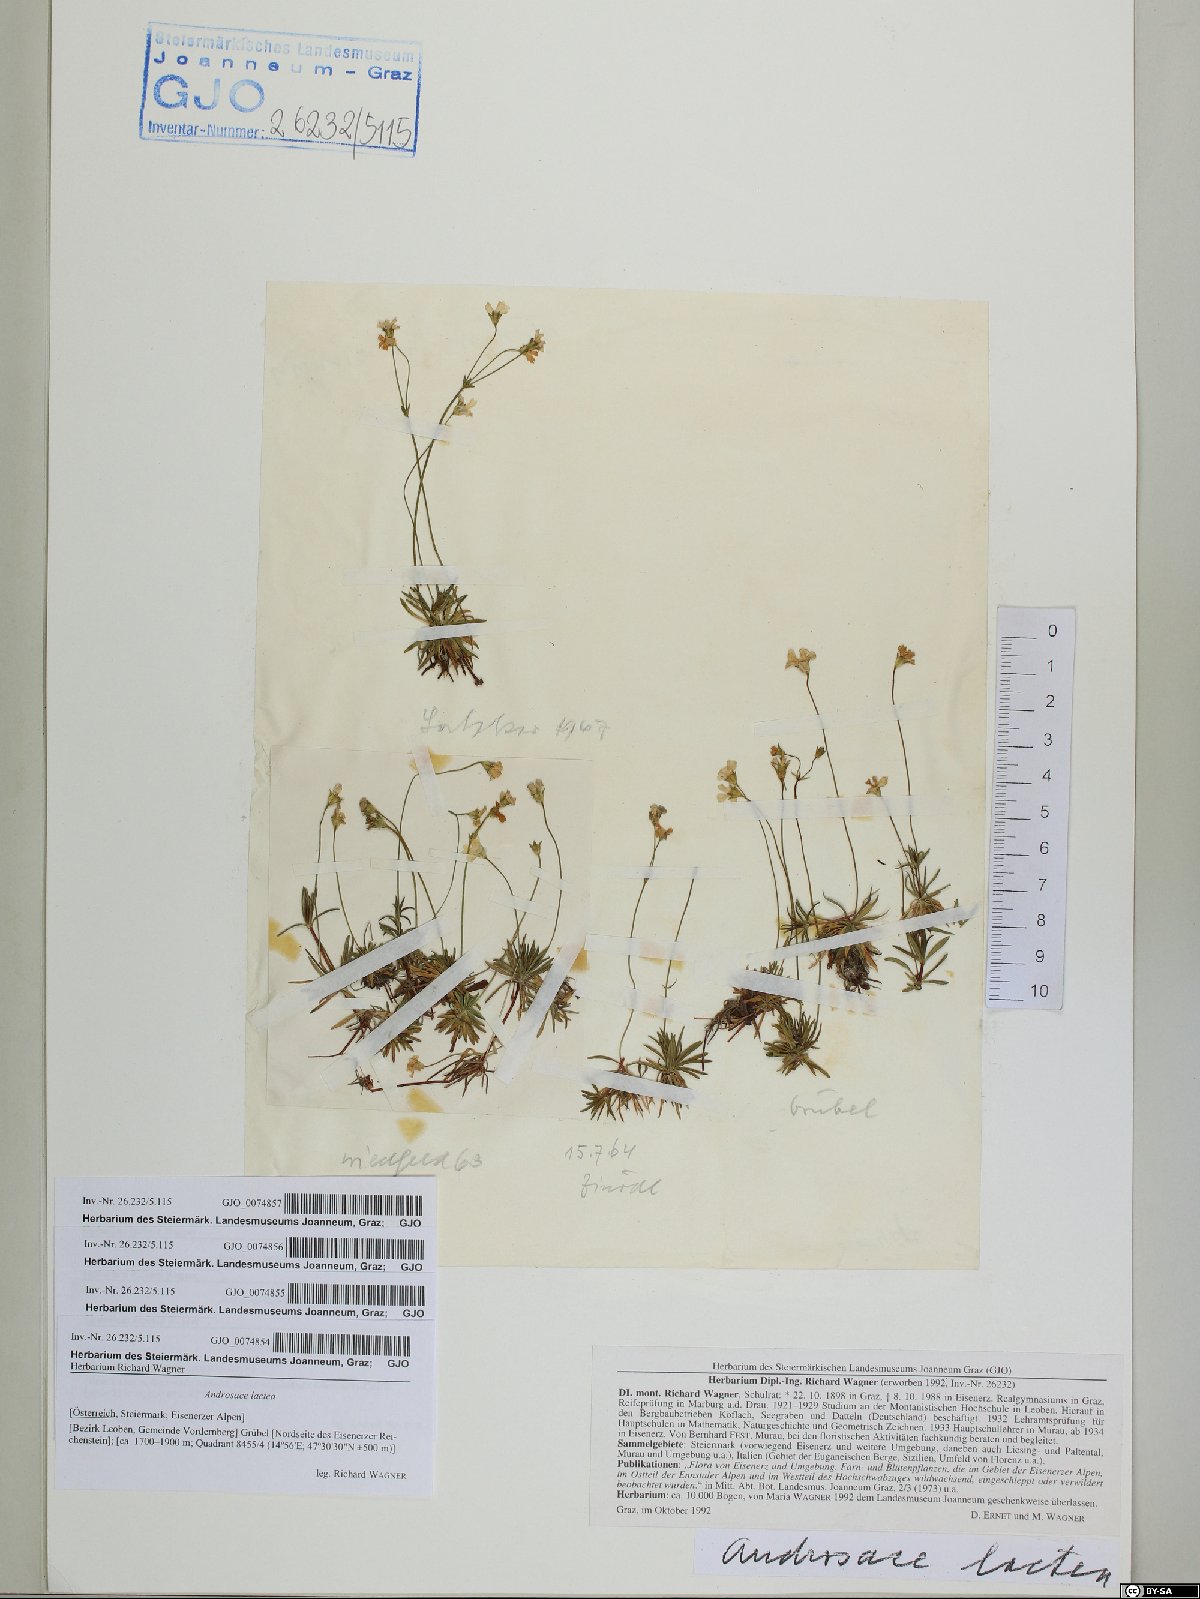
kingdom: Plantae
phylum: Tracheophyta
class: Magnoliopsida
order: Ericales
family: Primulaceae
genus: Androsace
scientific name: Androsace lactea
